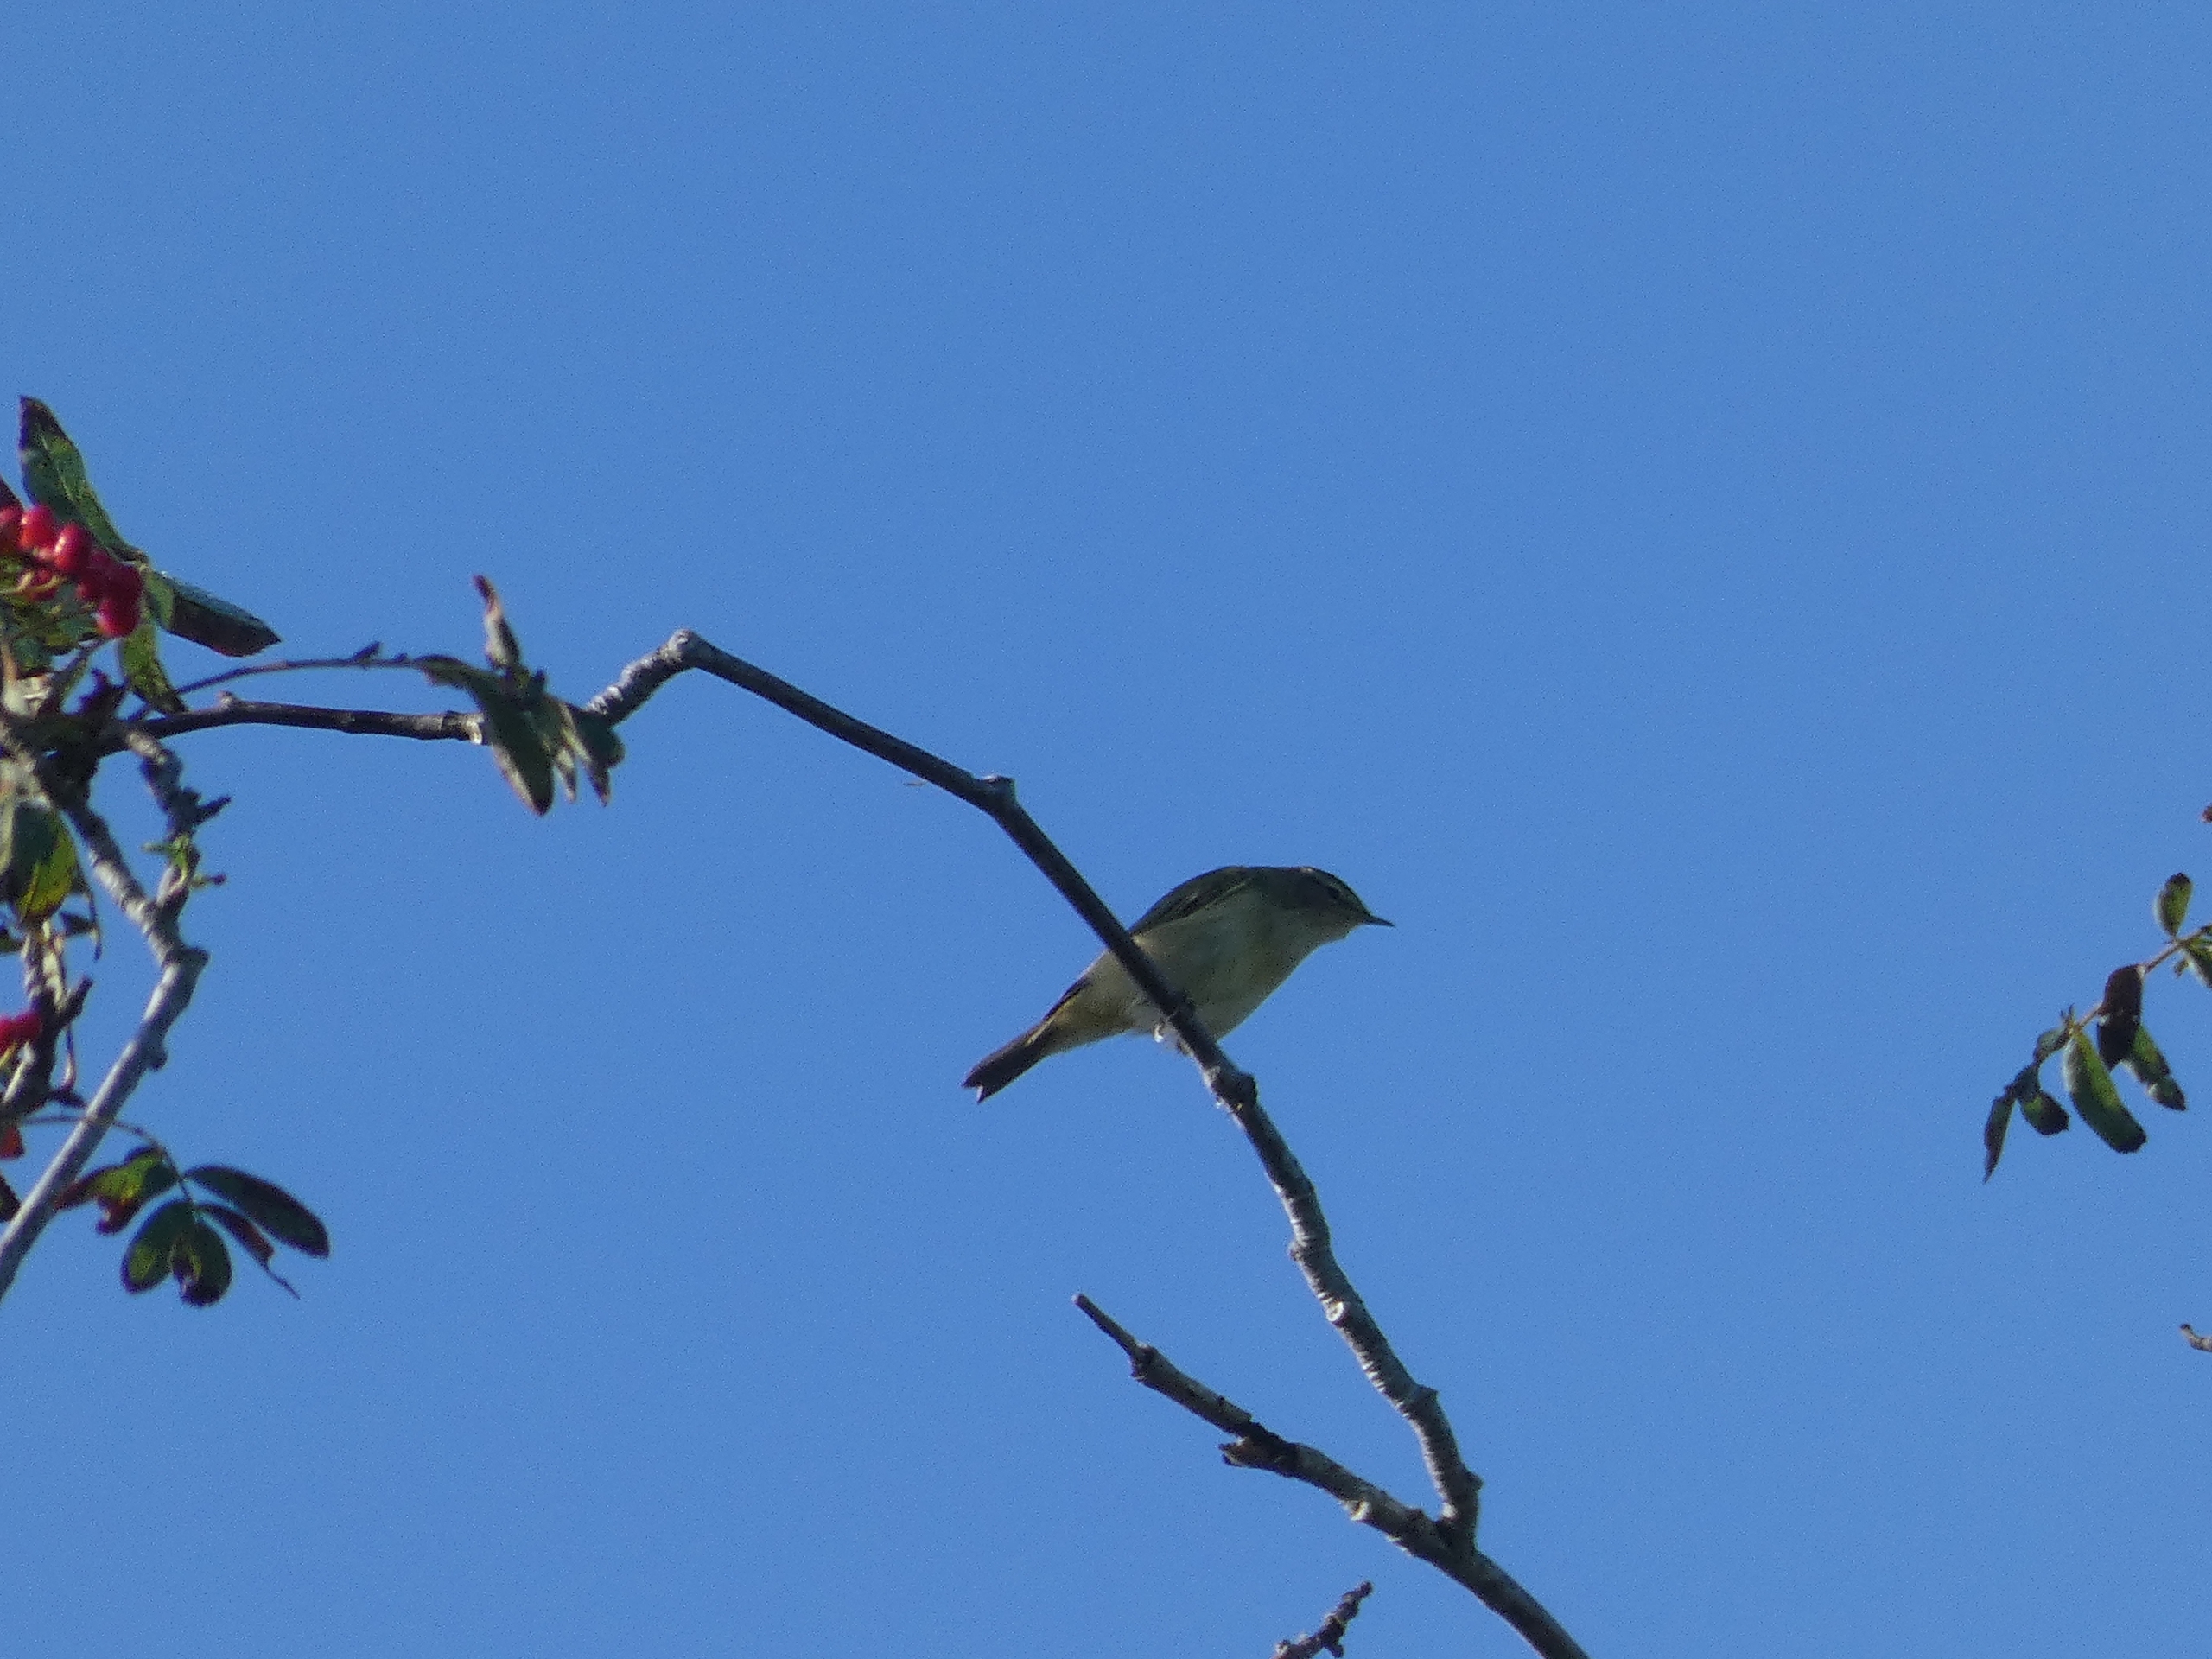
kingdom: Animalia
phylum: Chordata
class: Aves
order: Passeriformes
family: Phylloscopidae
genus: Phylloscopus
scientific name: Phylloscopus collybita
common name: Gransanger
